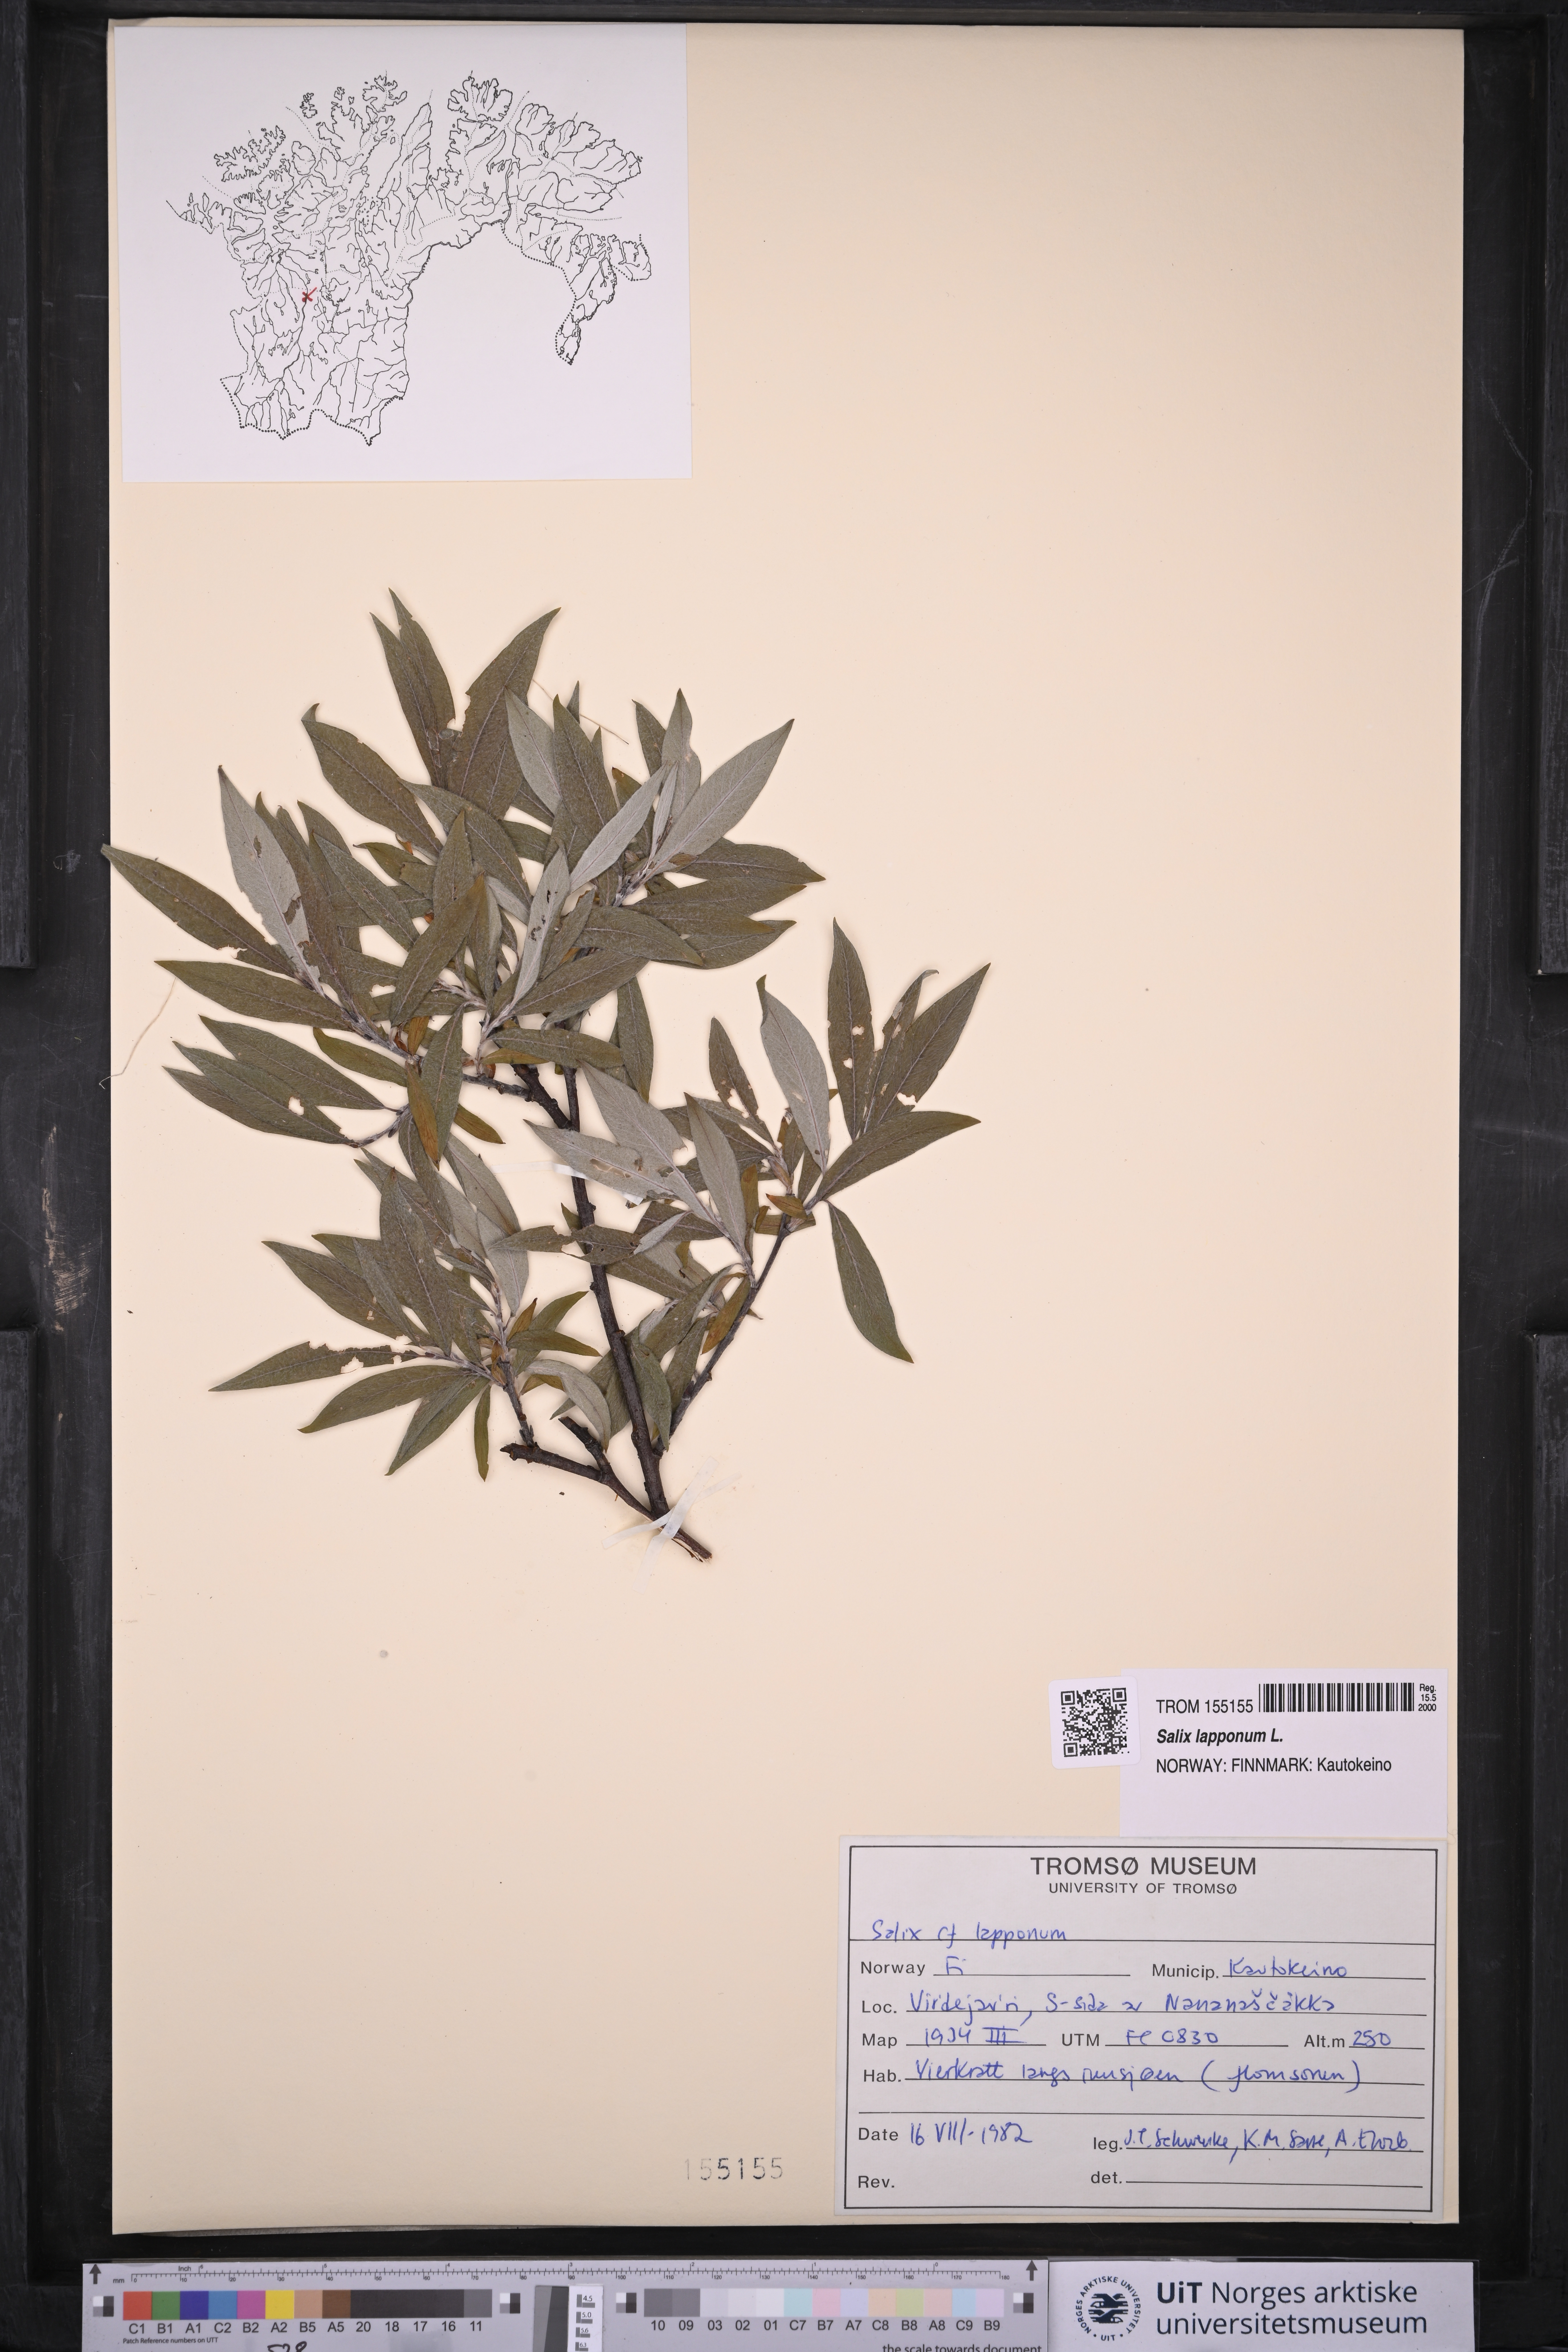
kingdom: Plantae
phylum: Tracheophyta
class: Magnoliopsida
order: Malpighiales
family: Salicaceae
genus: Salix
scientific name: Salix lapponum
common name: Downy willow
